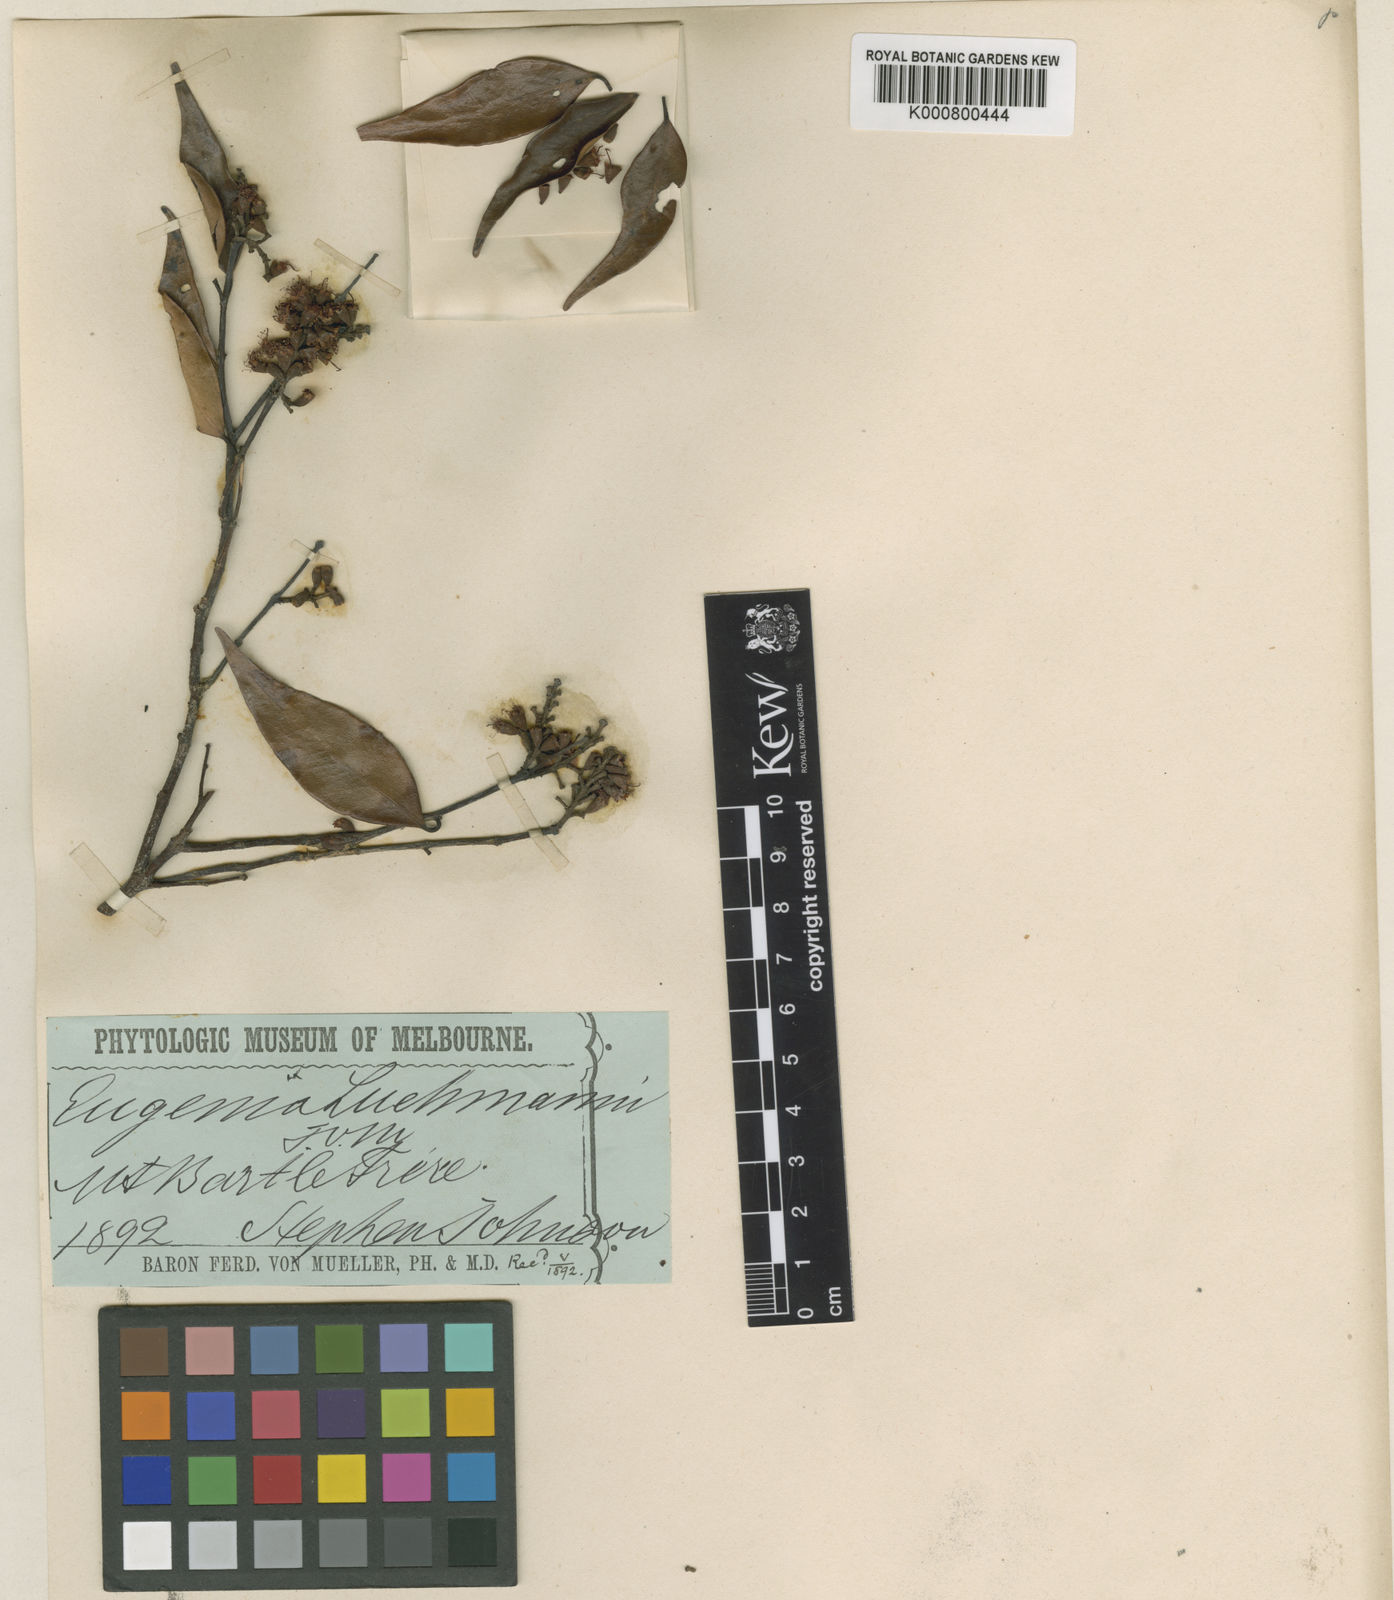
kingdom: Plantae
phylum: Tracheophyta
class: Magnoliopsida
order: Myrtales
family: Myrtaceae
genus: Syzygium
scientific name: Syzygium luehmannii
